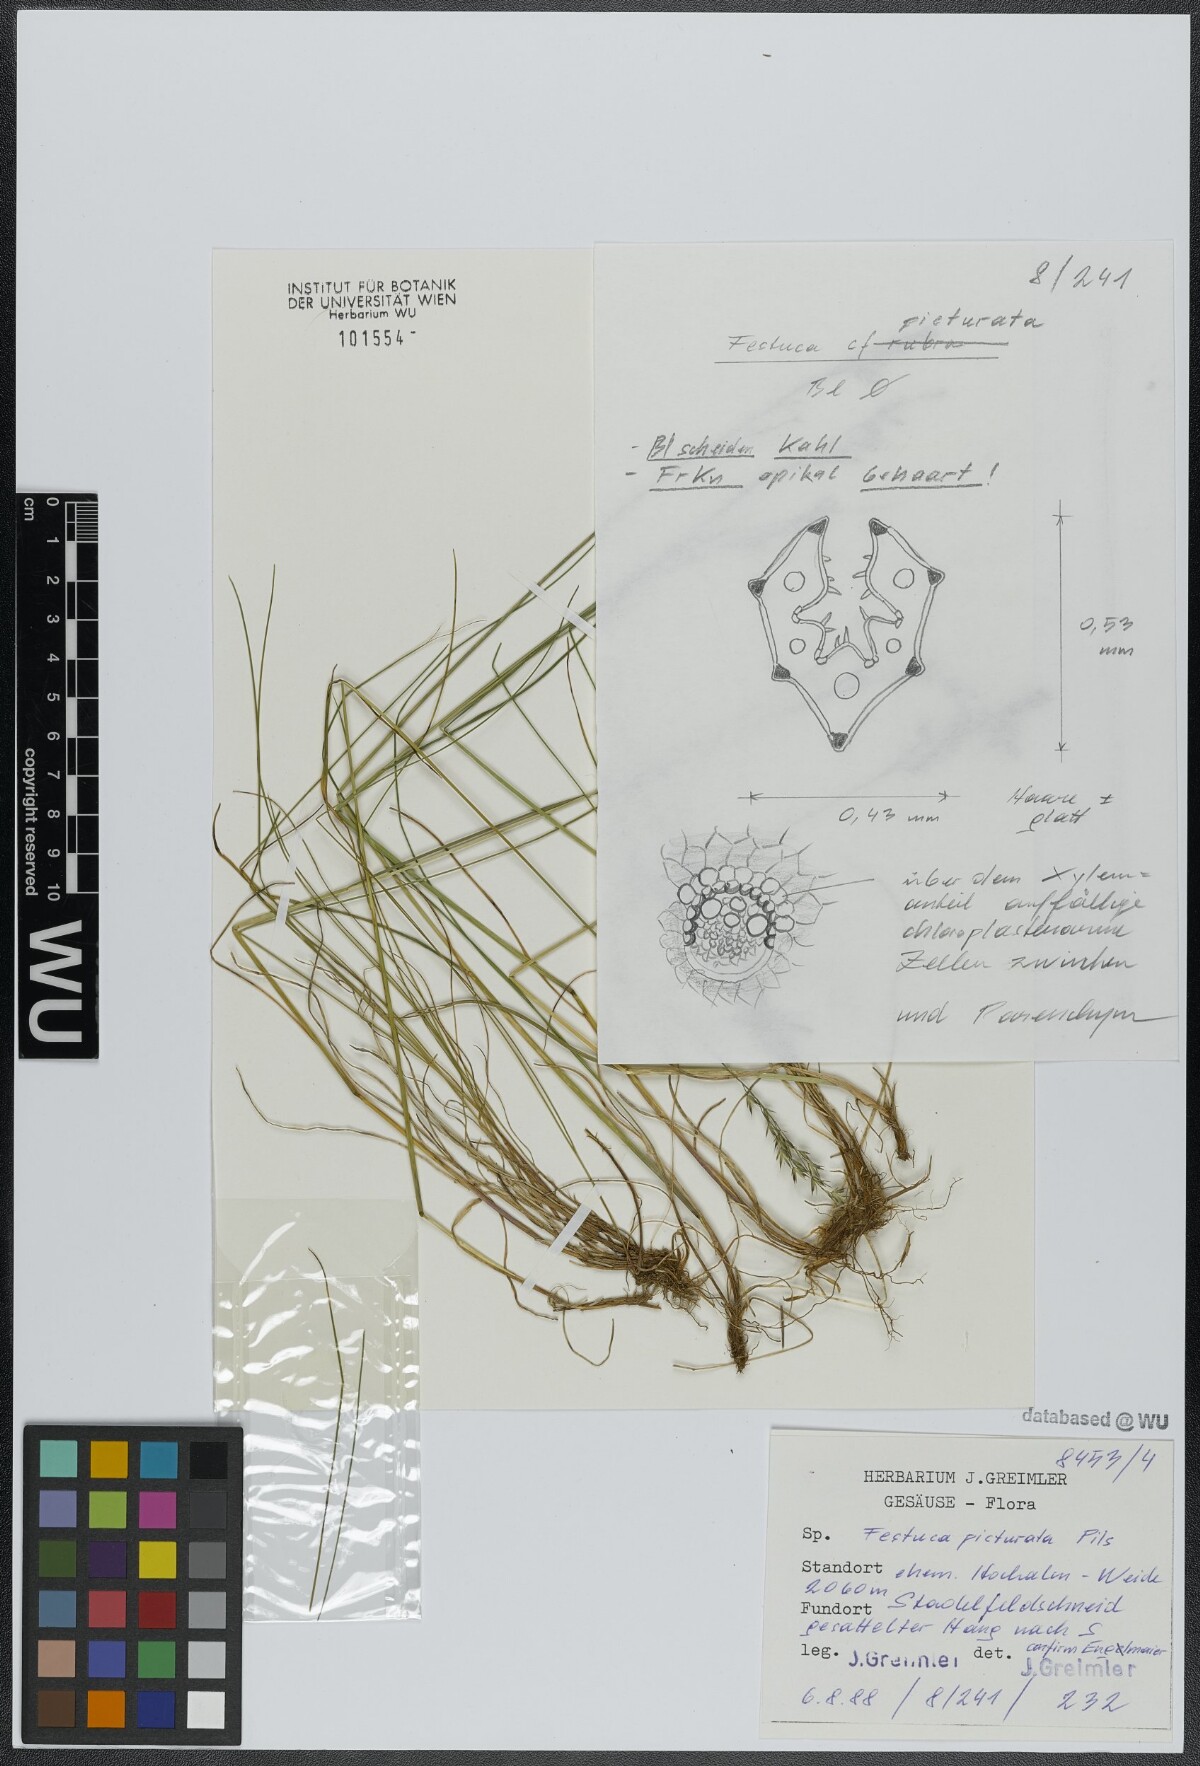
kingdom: Plantae
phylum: Tracheophyta
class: Liliopsida
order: Poales
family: Poaceae
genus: Festuca
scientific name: Festuca picturata
